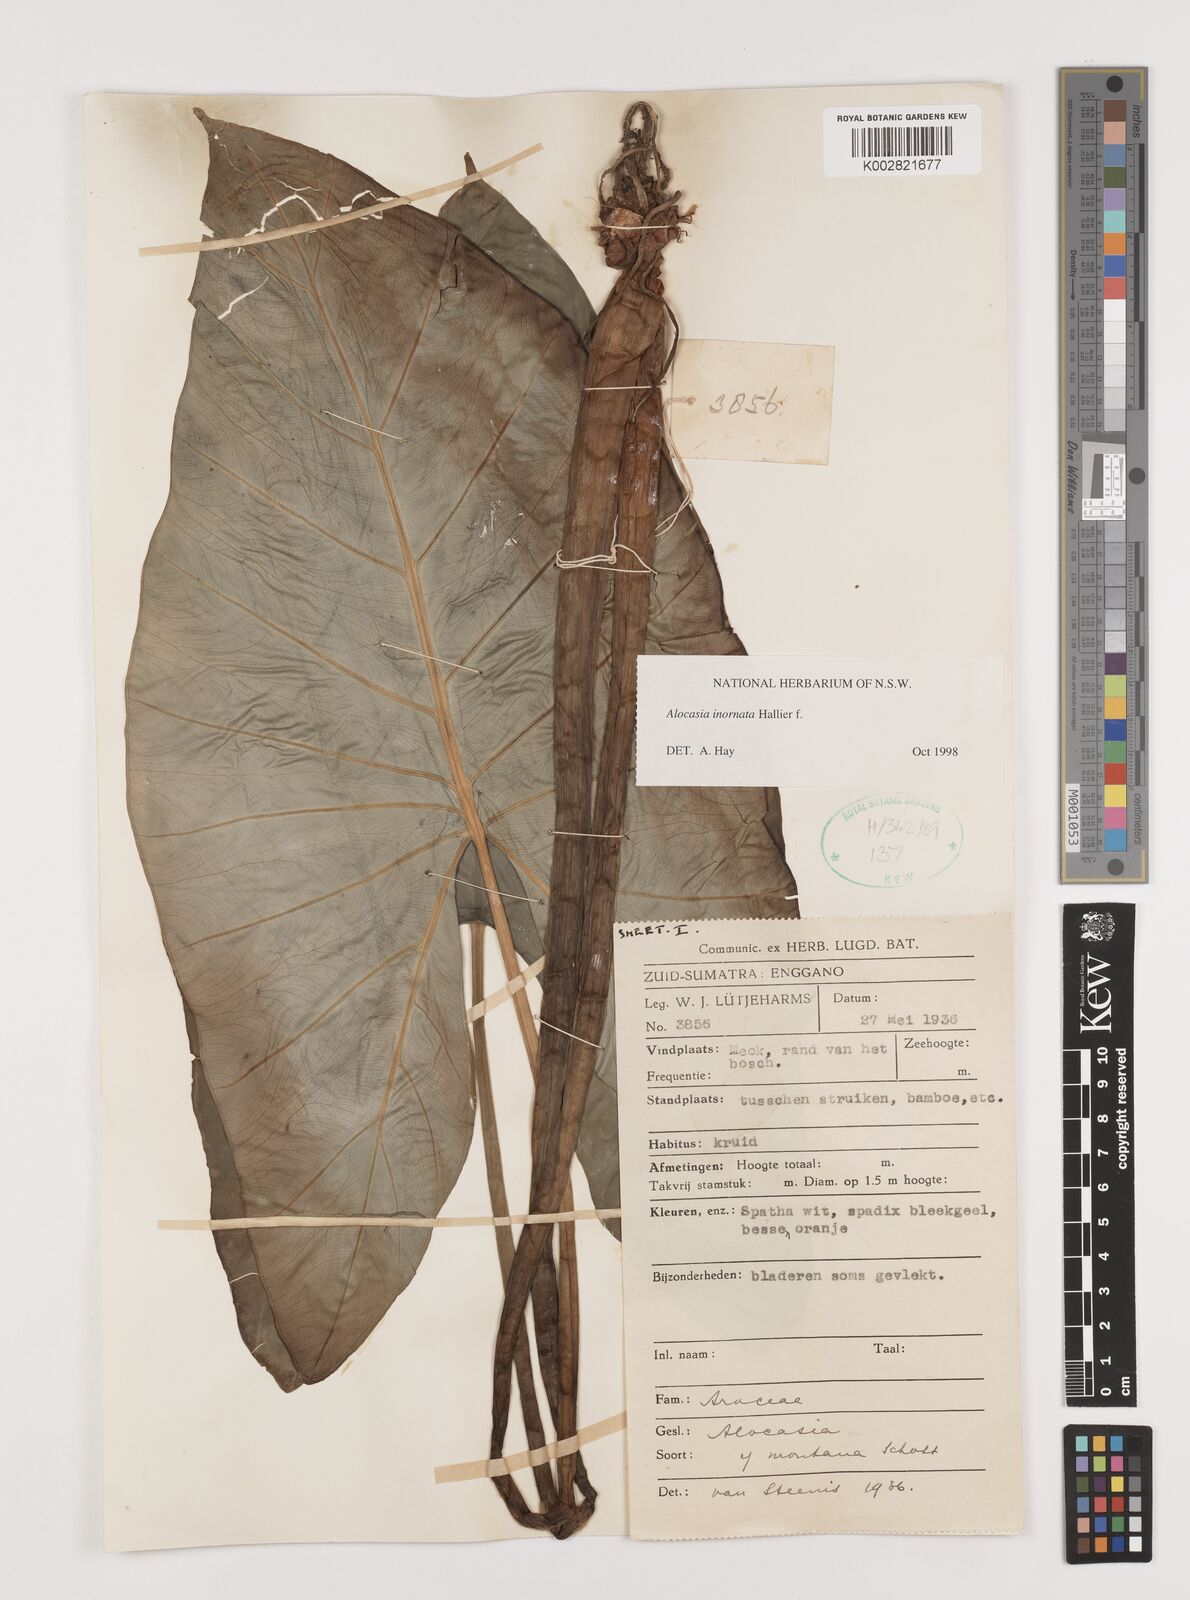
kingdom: Plantae
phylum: Tracheophyta
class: Liliopsida
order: Alismatales
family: Araceae
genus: Alocasia
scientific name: Alocasia inornata
